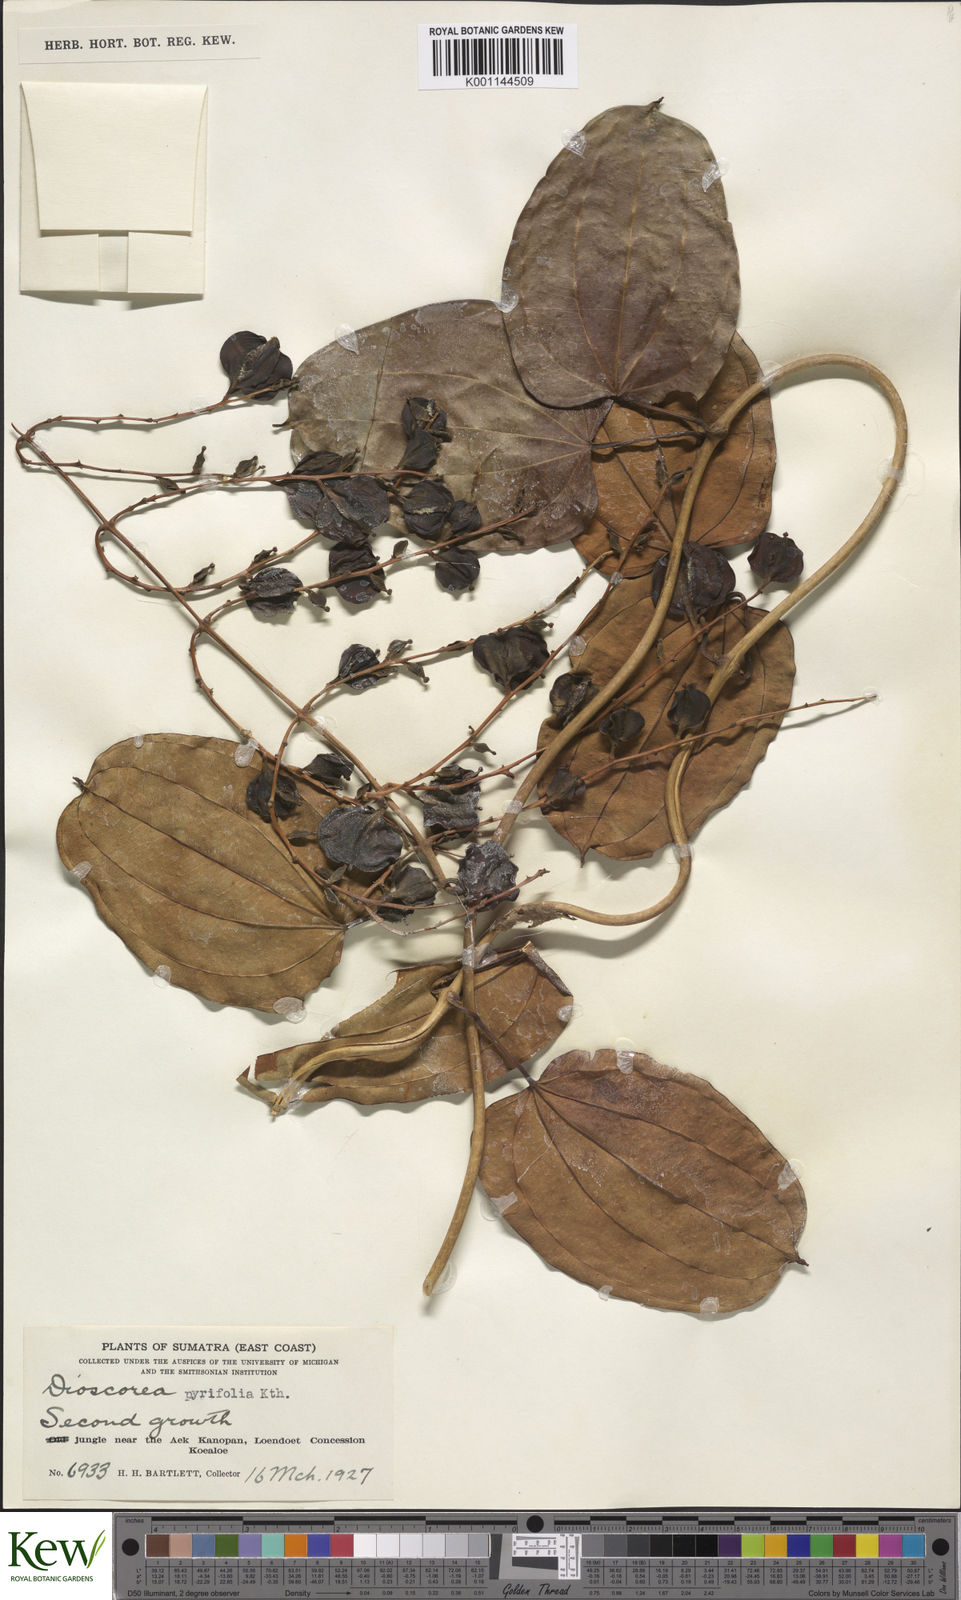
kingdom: Plantae
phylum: Tracheophyta
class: Liliopsida
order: Dioscoreales
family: Dioscoreaceae
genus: Dioscorea
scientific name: Dioscorea pyrifolia
